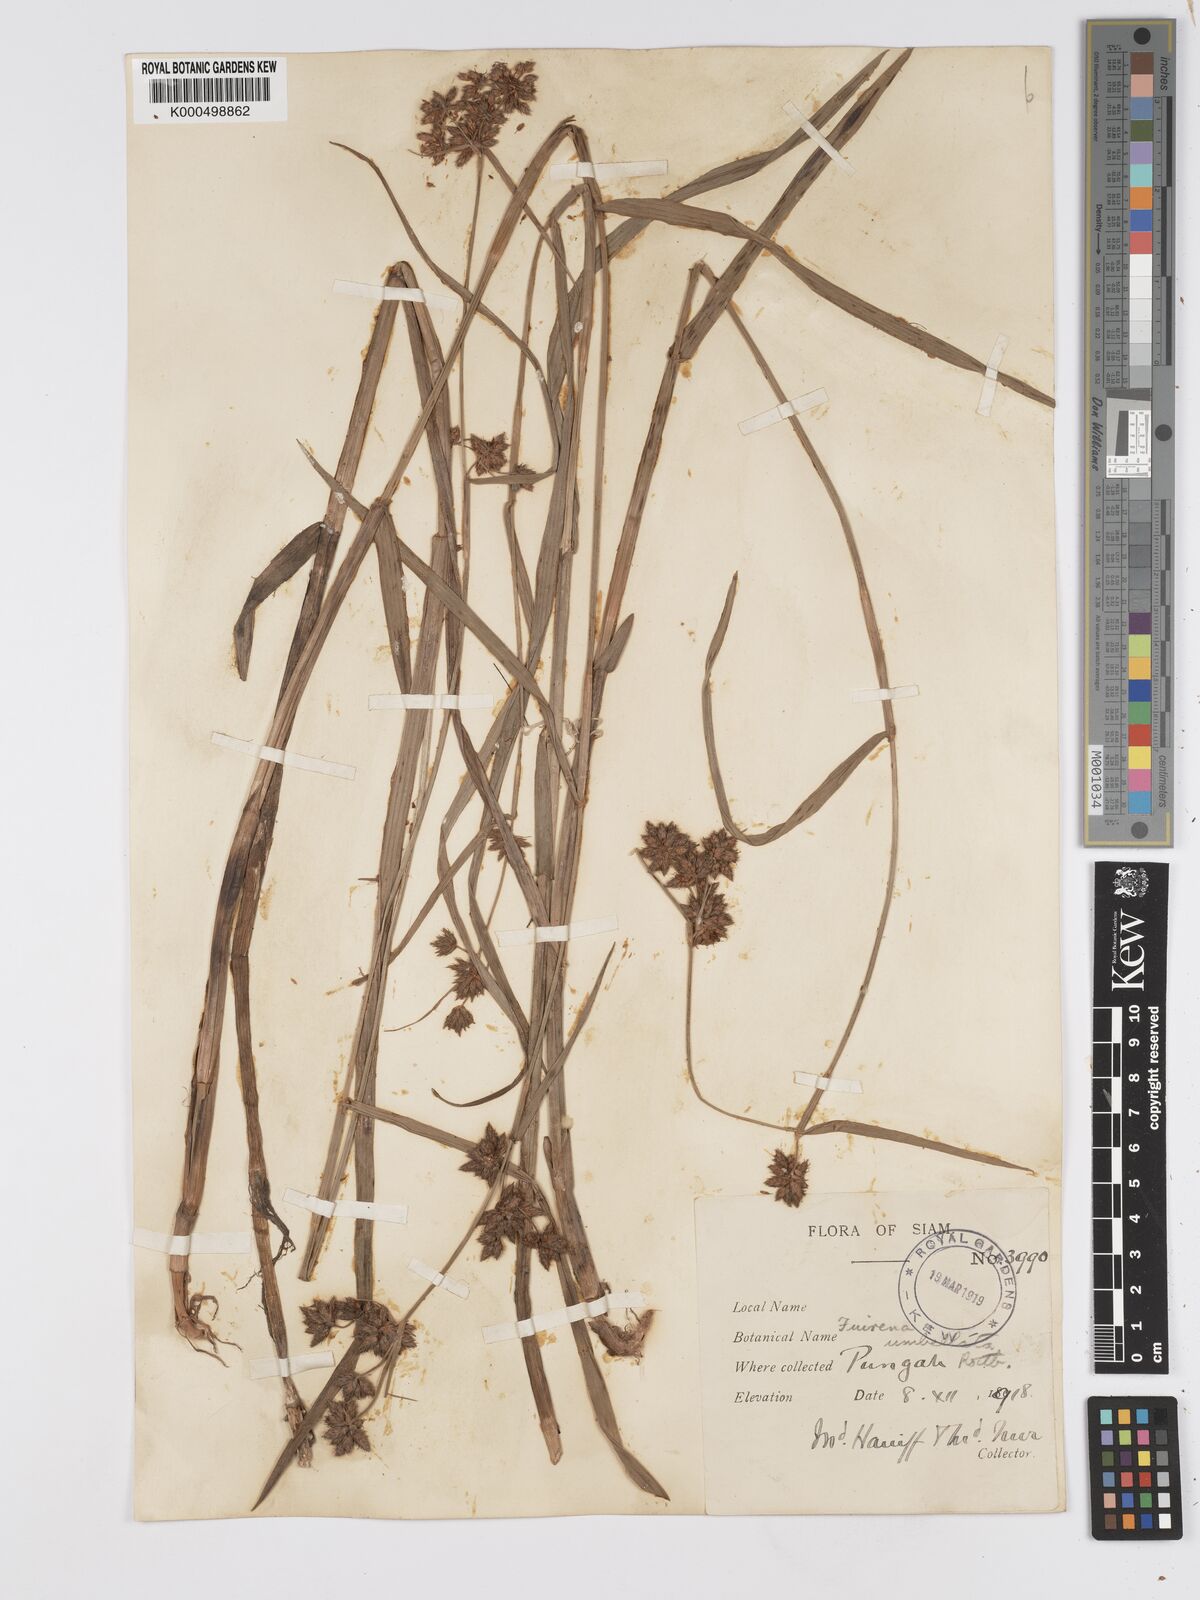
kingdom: Plantae
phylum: Tracheophyta
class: Liliopsida
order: Poales
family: Cyperaceae
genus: Fuirena
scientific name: Fuirena umbellata
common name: Yefen
